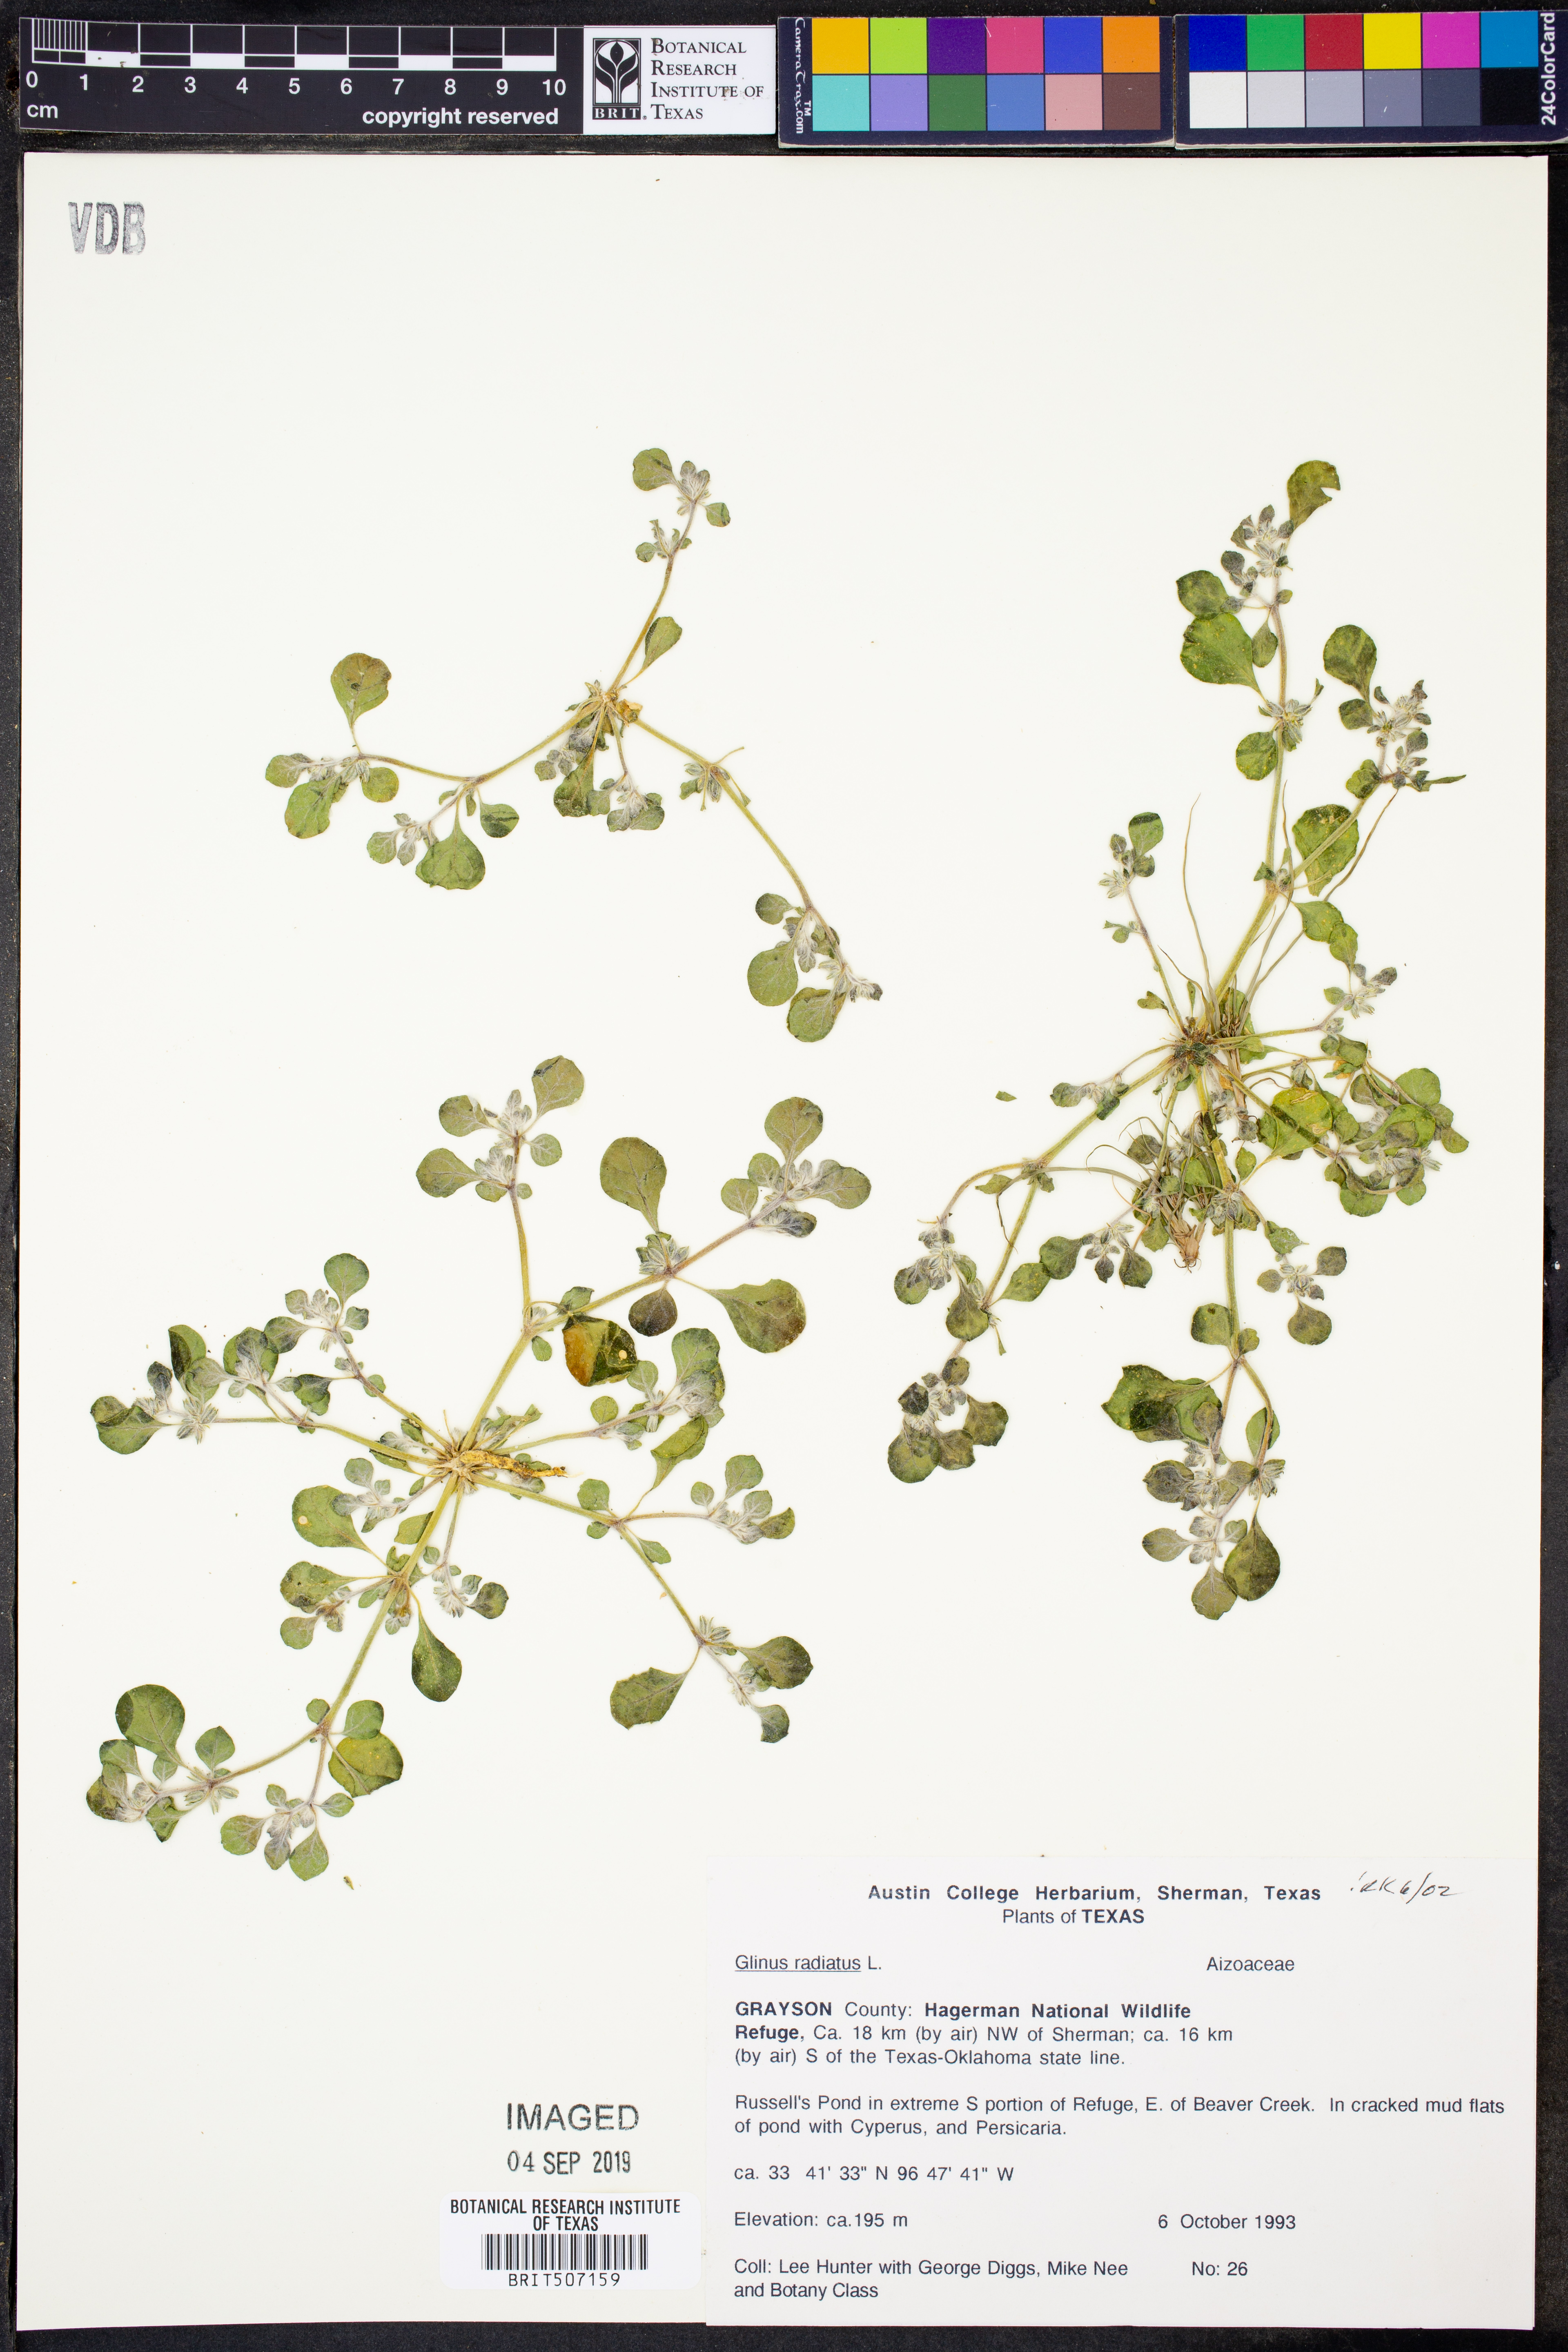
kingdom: Plantae
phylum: Tracheophyta
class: Magnoliopsida
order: Caryophyllales
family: Molluginaceae
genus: Glinus
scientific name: Glinus radiatus
